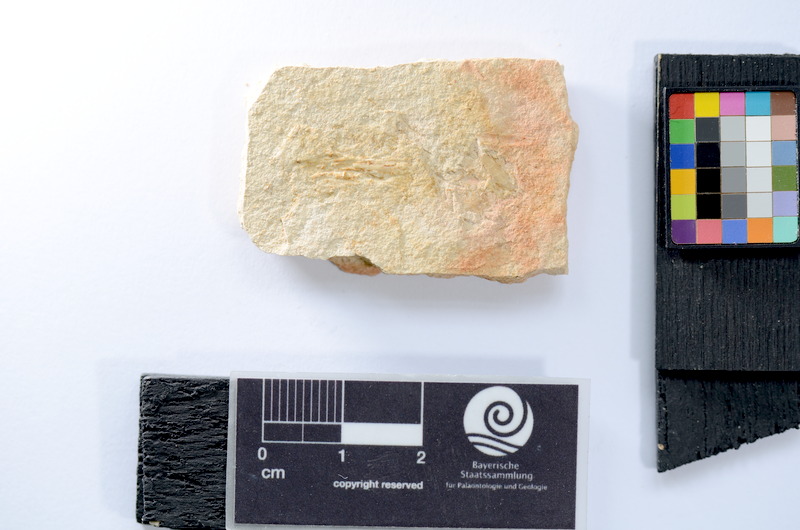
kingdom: Animalia
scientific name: Animalia
